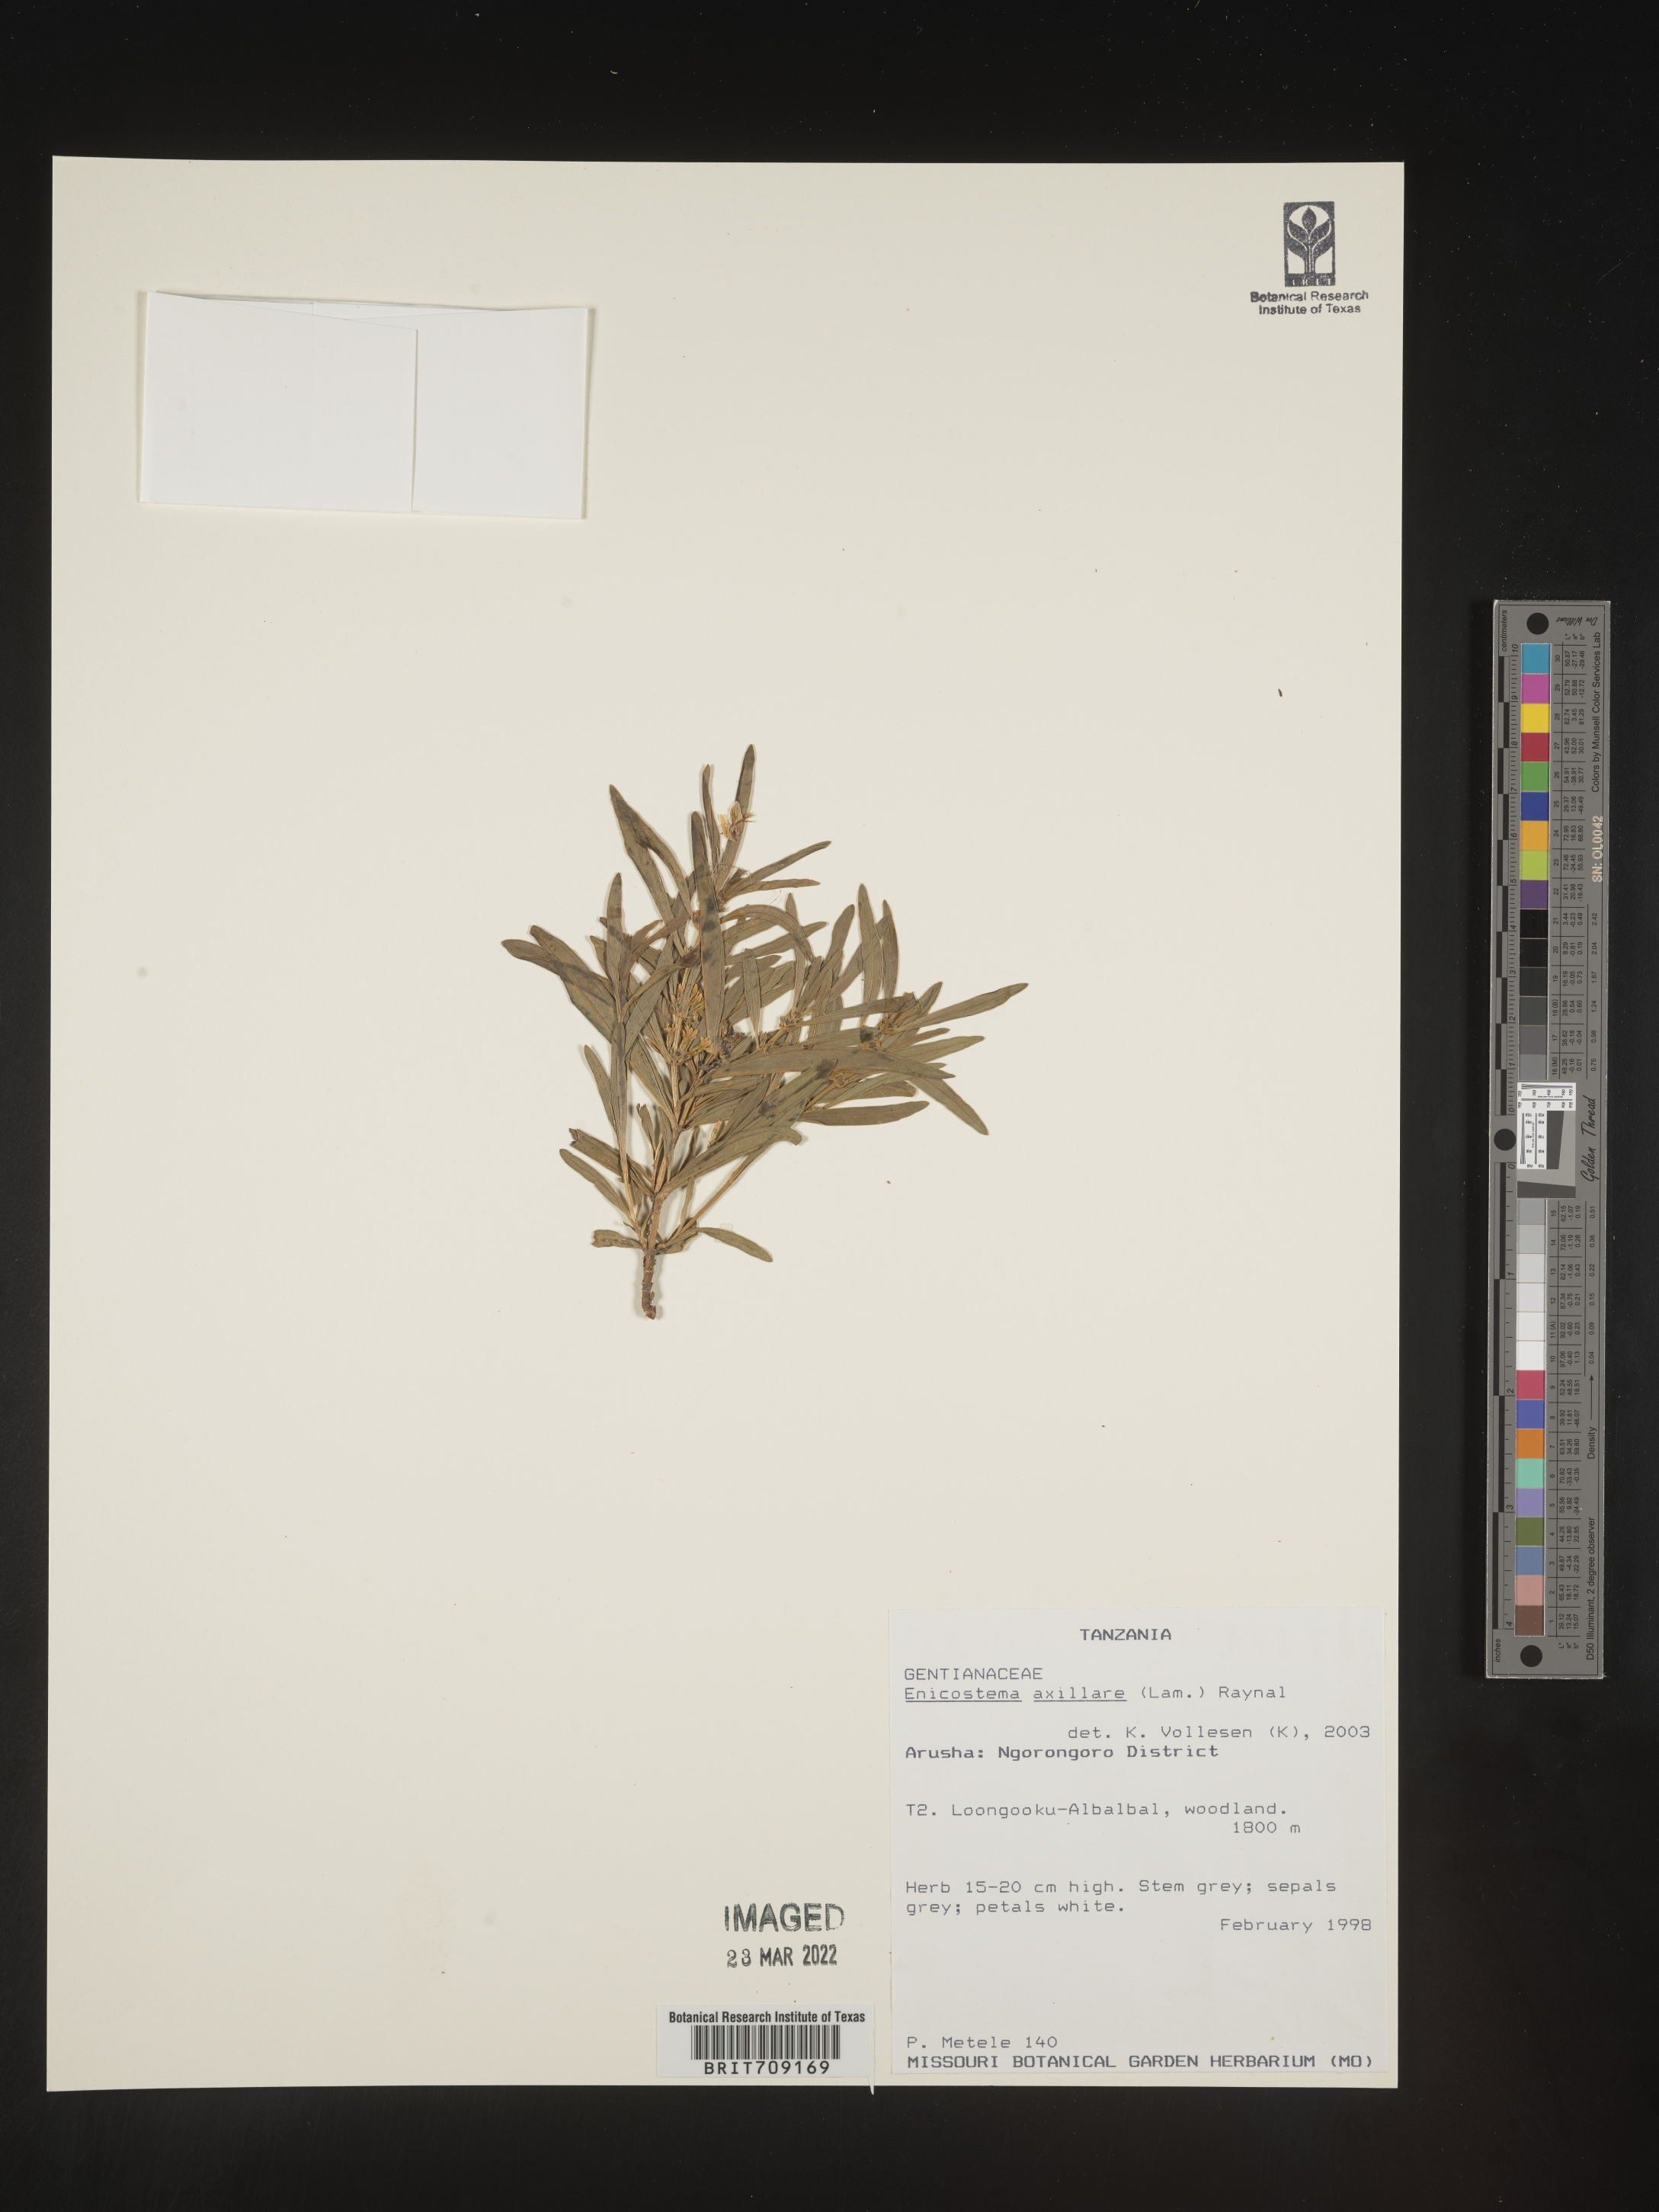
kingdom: Plantae
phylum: Tracheophyta
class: Magnoliopsida
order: Gentianales
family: Gentianaceae
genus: Enicostema
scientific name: Enicostema
